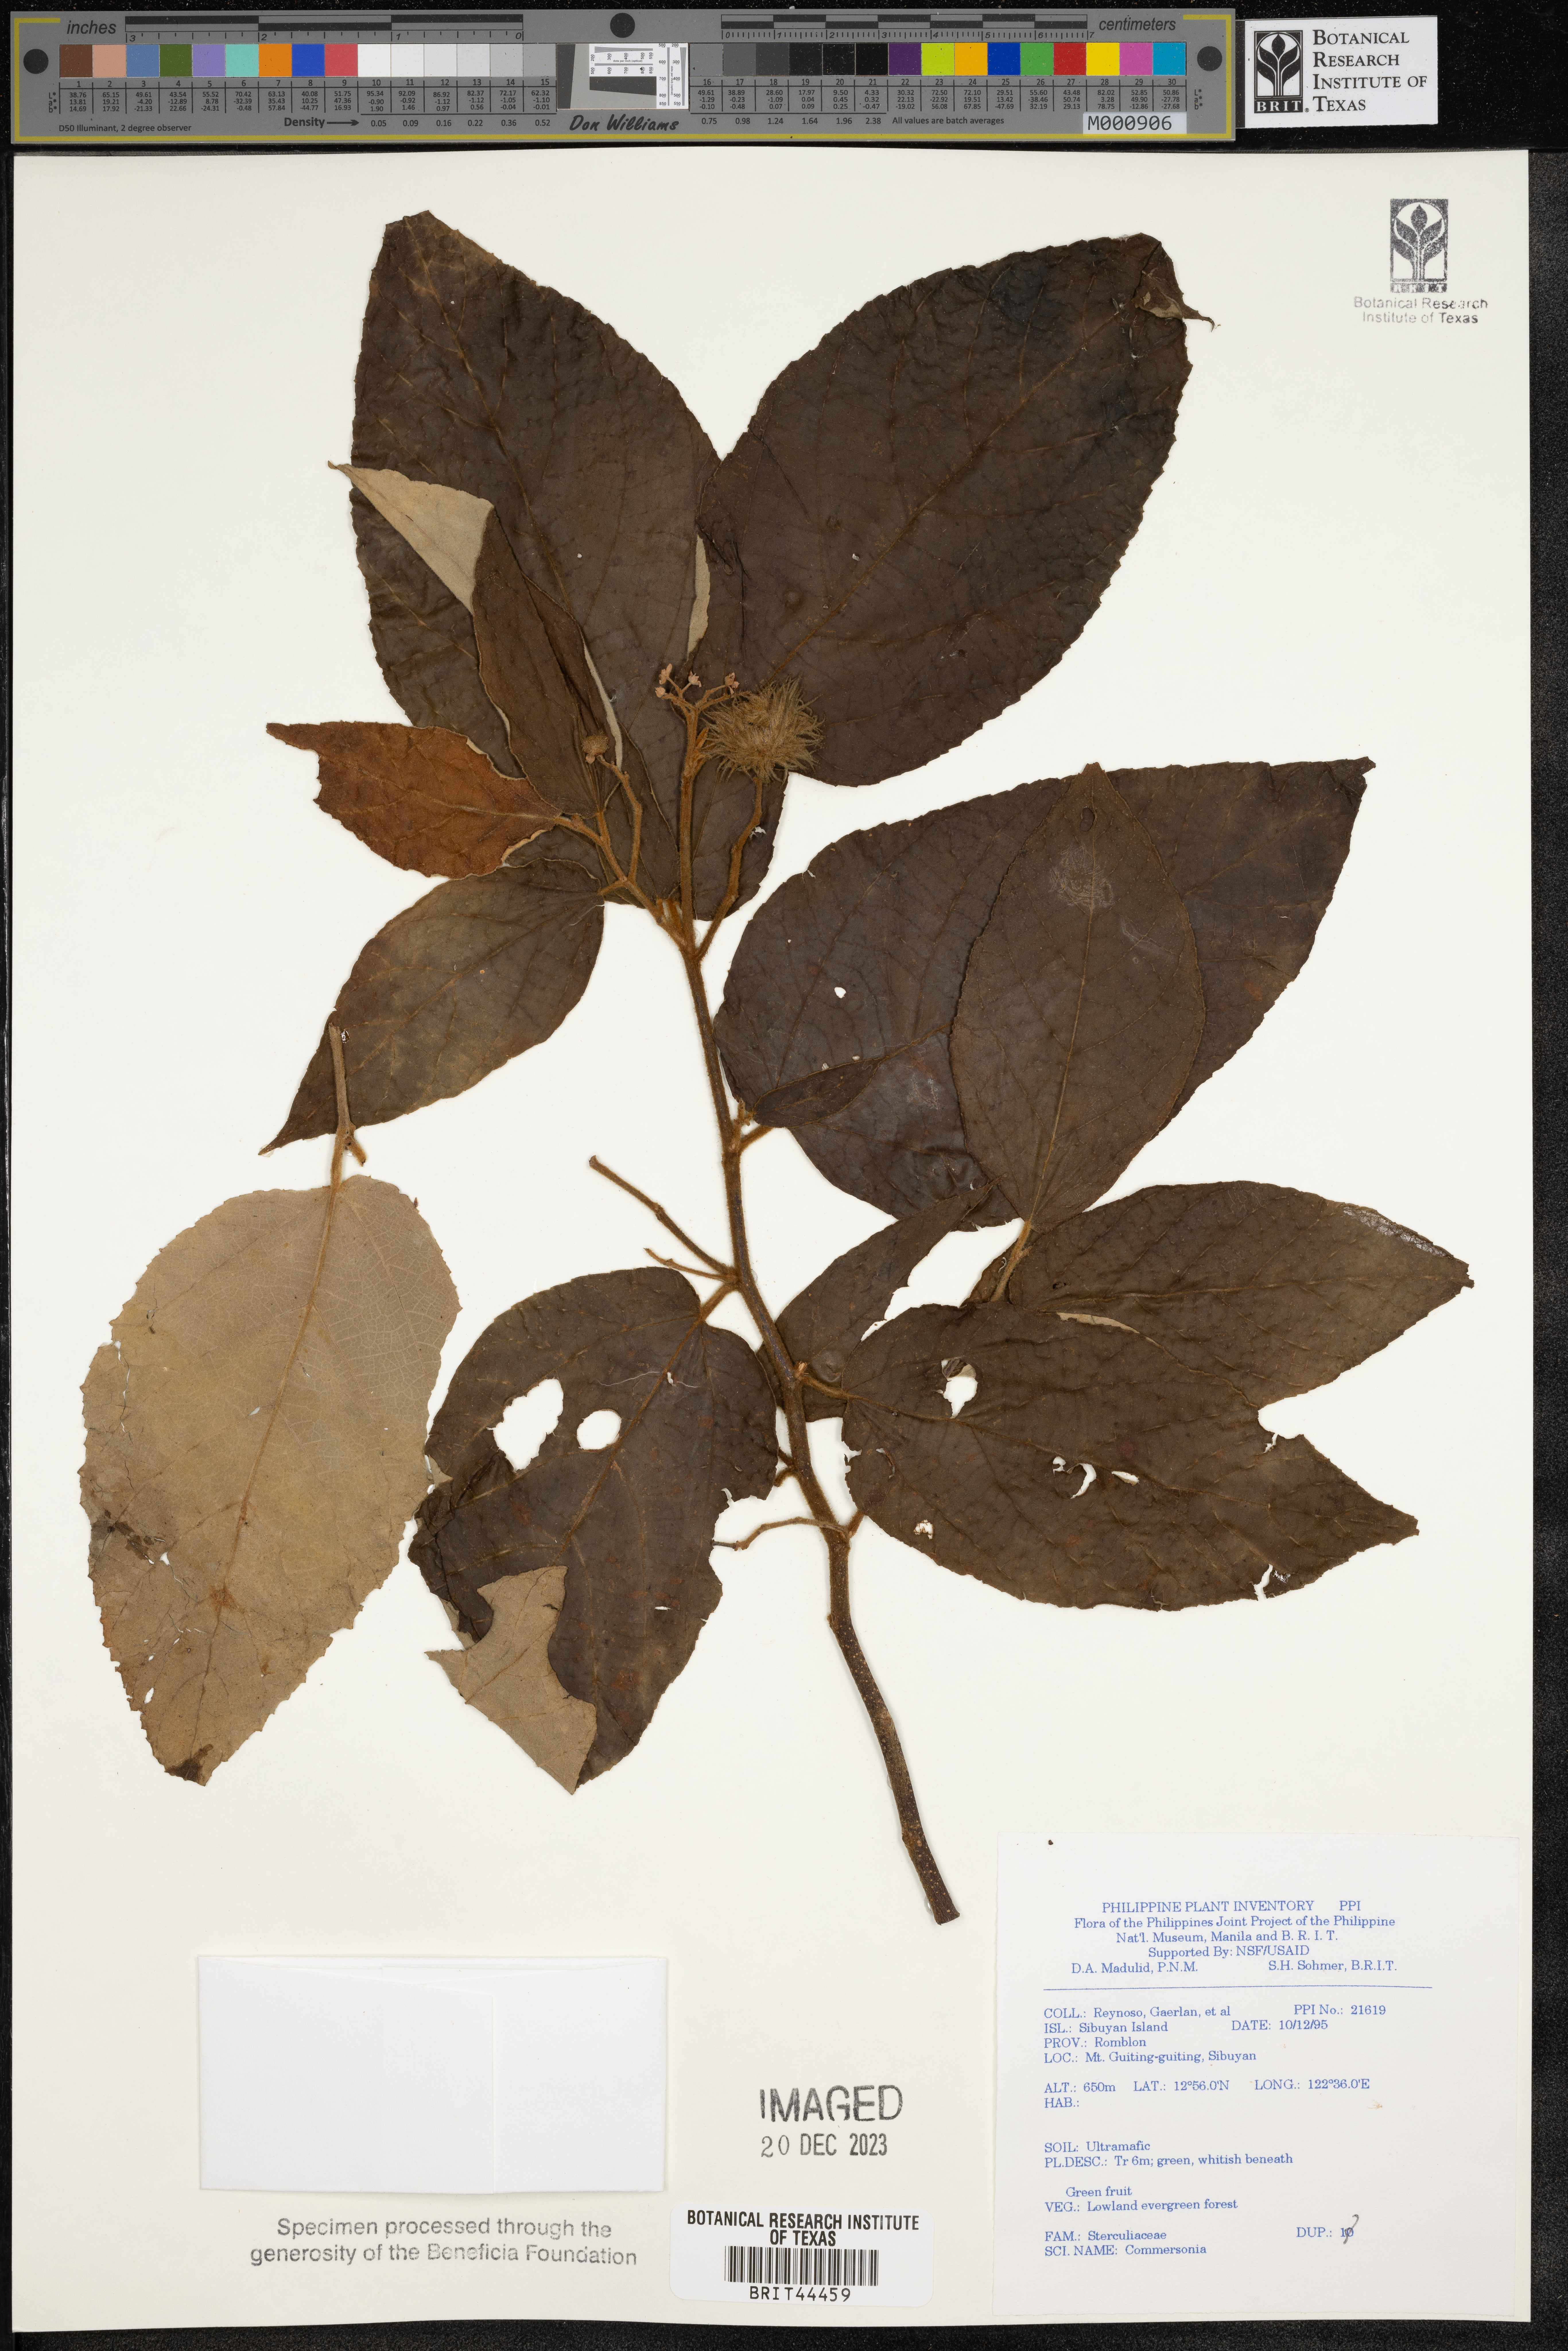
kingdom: Plantae
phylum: Tracheophyta
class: Magnoliopsida
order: Malvales
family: Malvaceae
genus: Commersonia
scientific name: Commersonia
